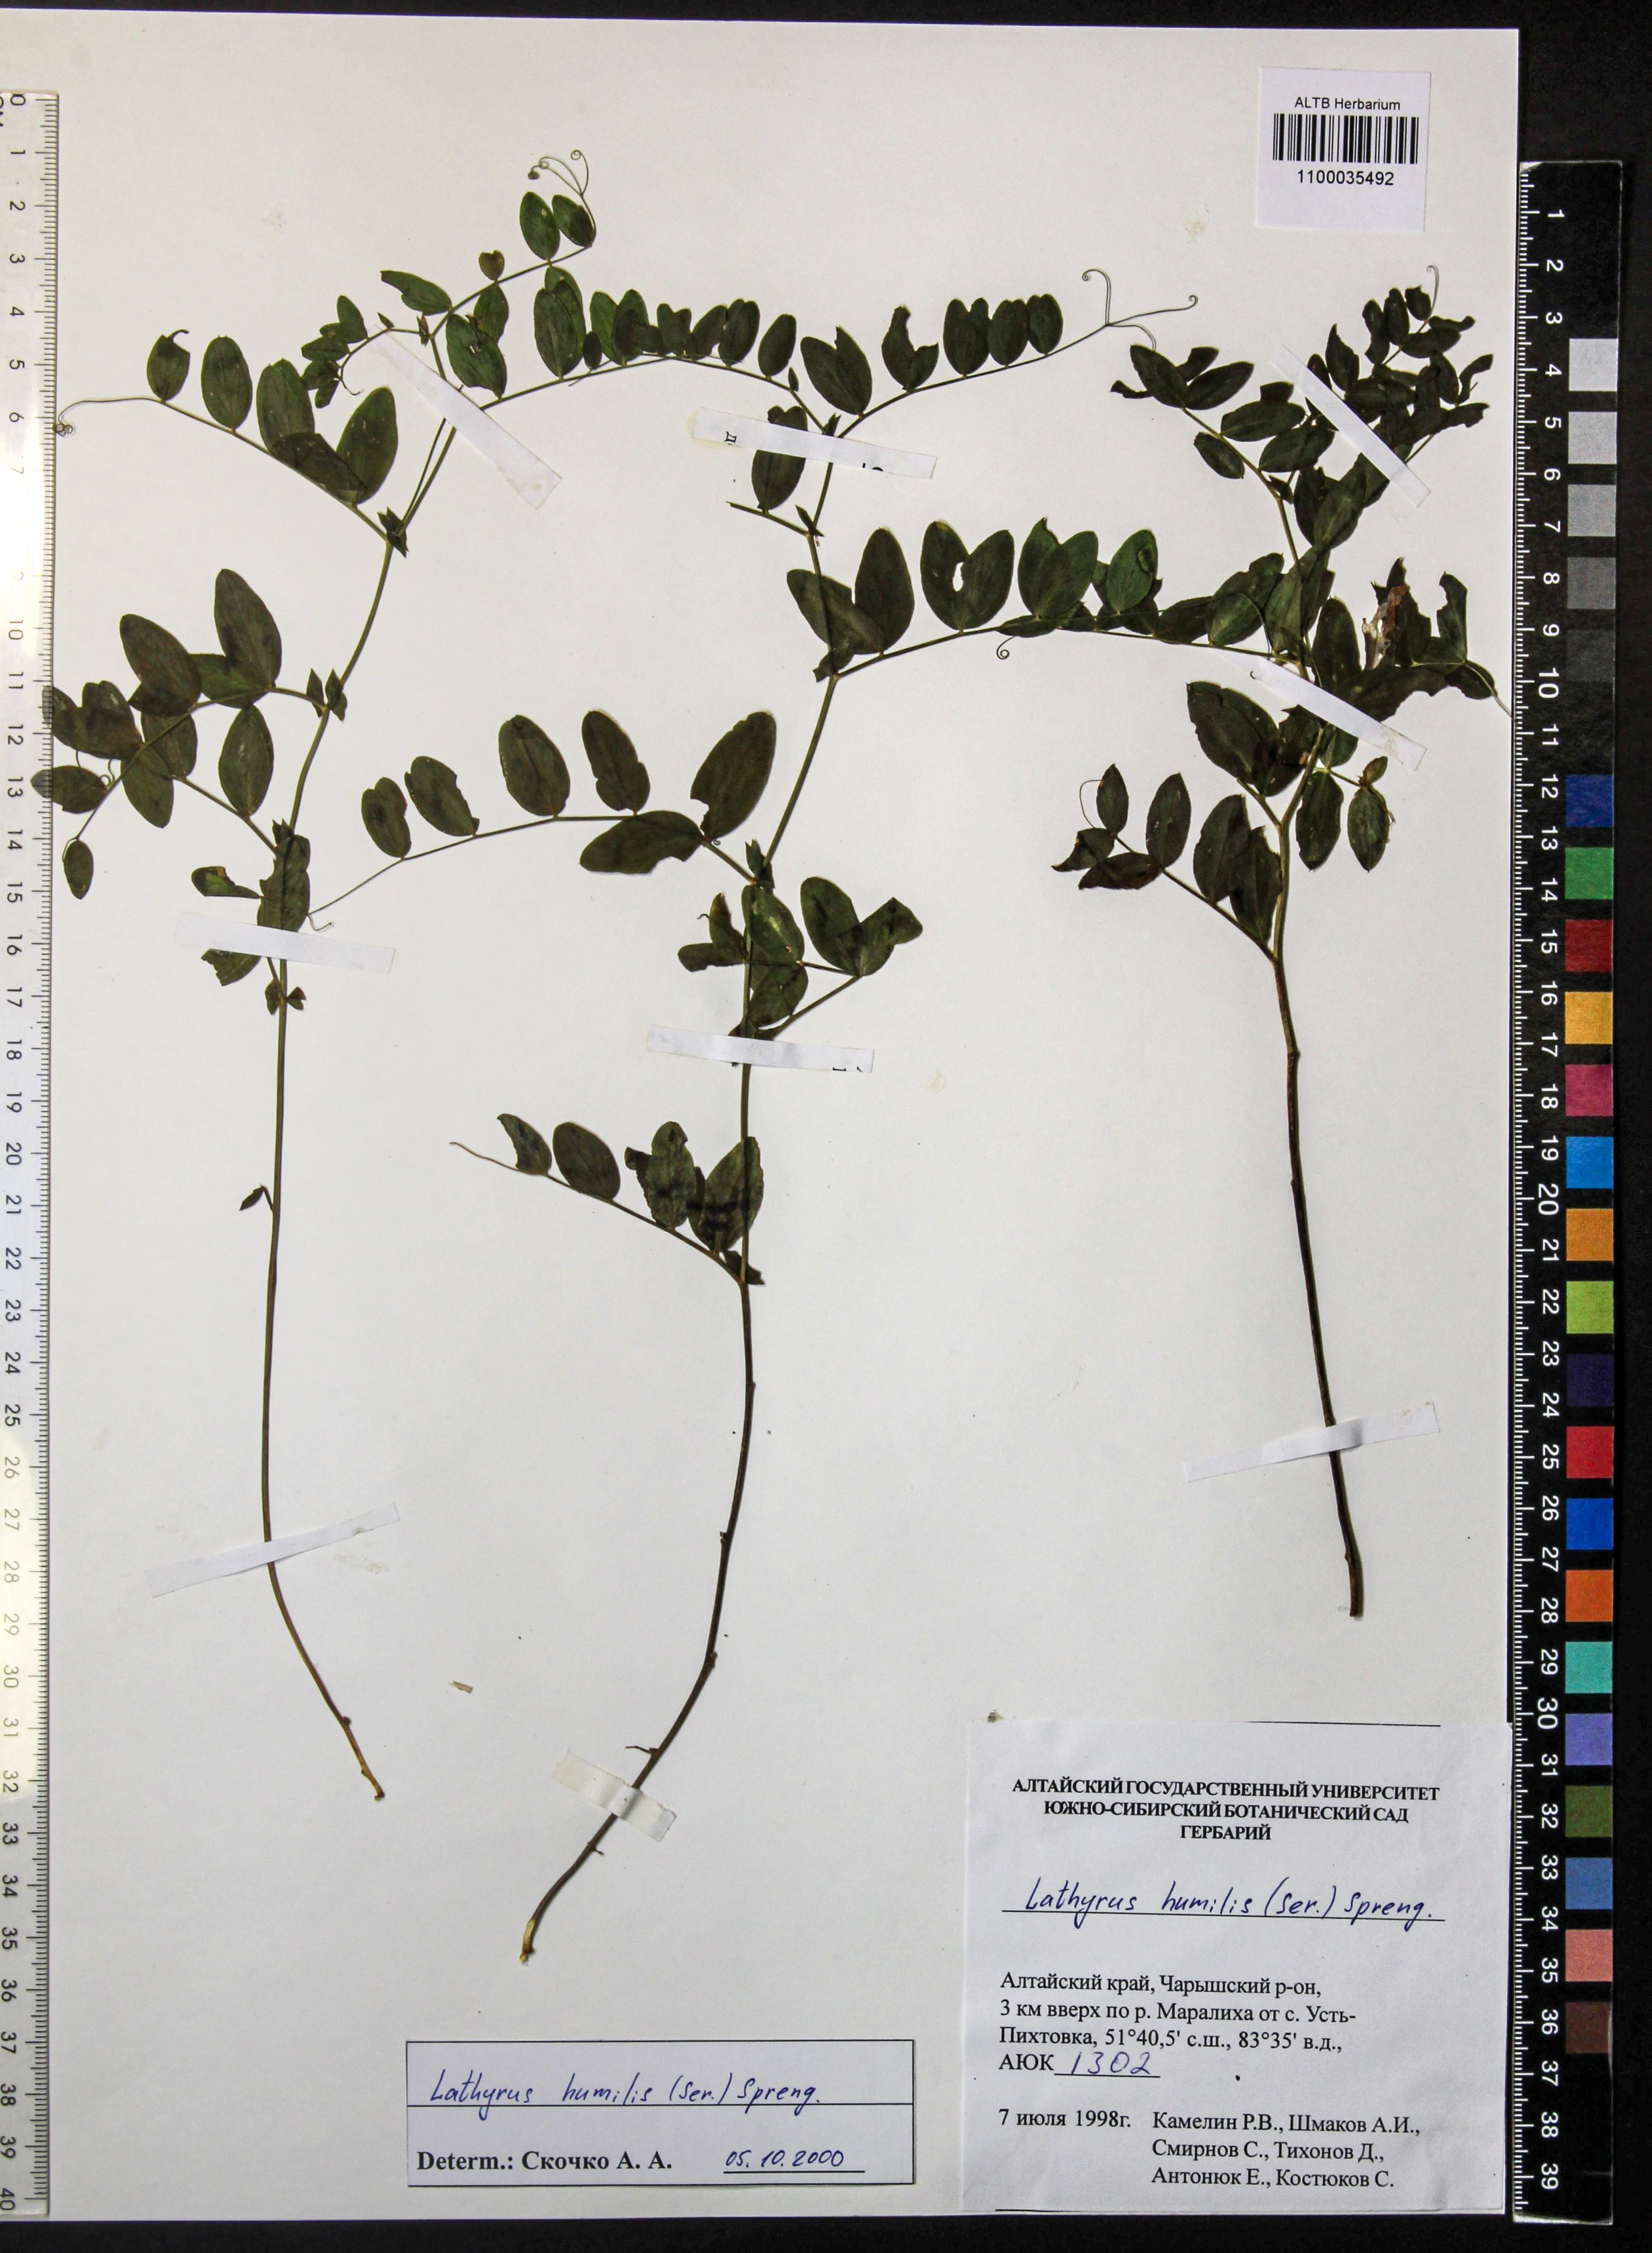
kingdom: Plantae
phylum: Tracheophyta
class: Magnoliopsida
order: Fabales
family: Fabaceae
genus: Lathyrus
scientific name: Lathyrus humilis
